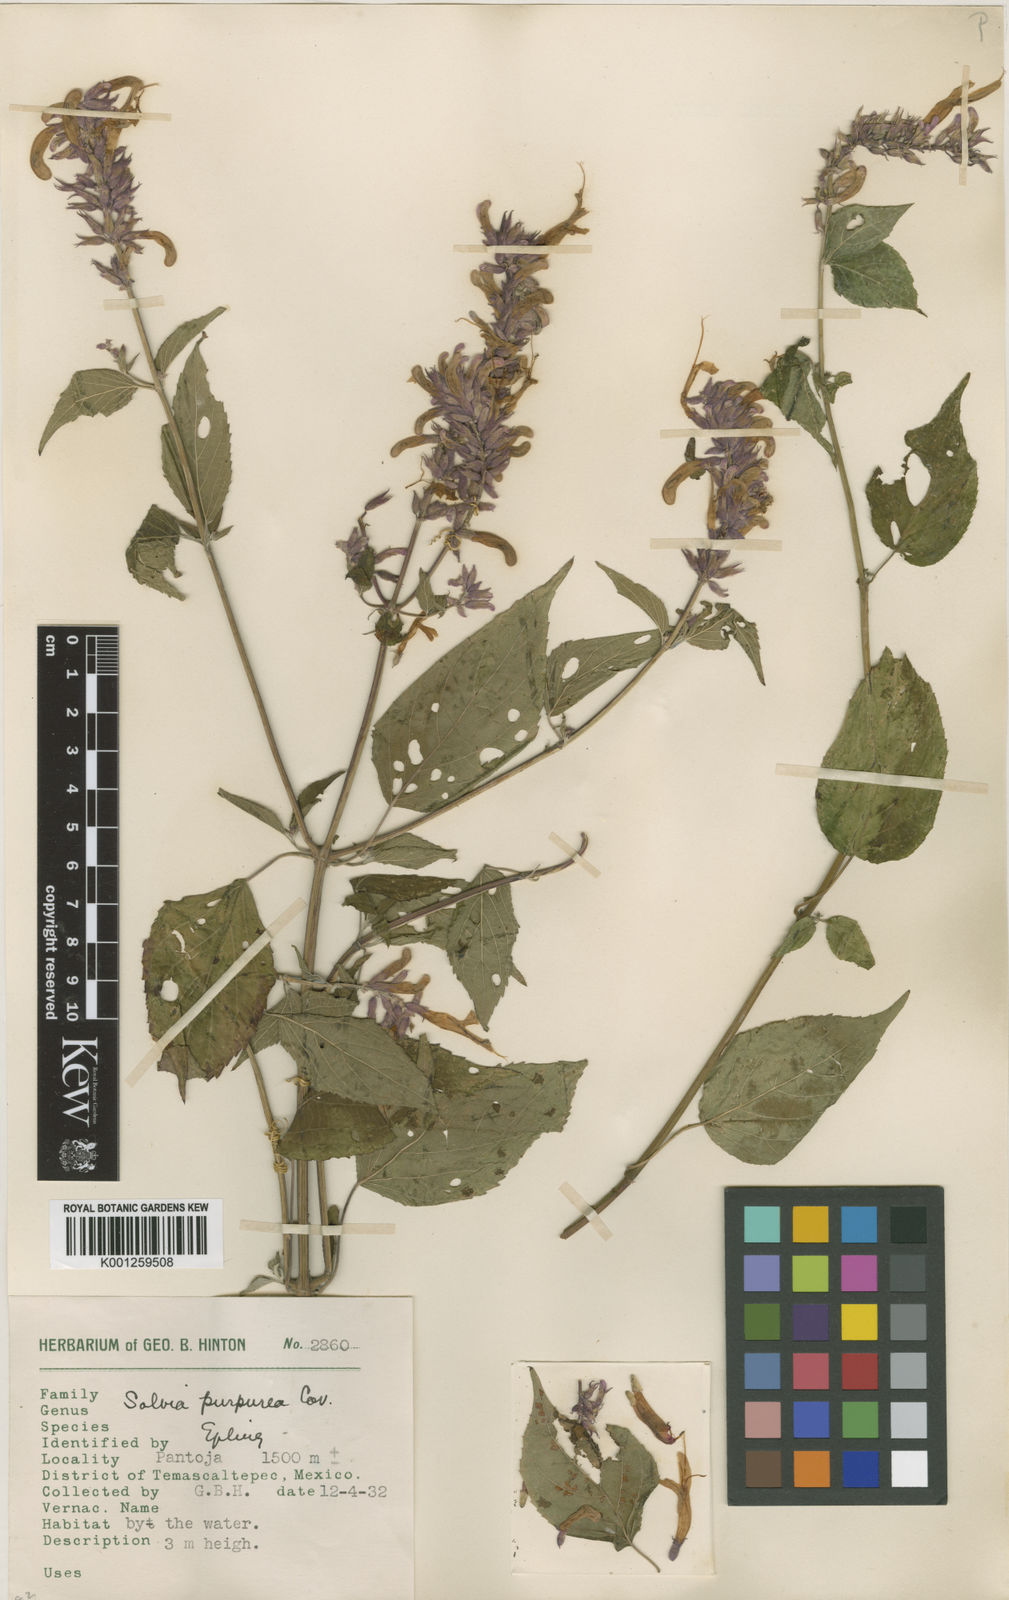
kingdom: Plantae
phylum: Tracheophyta
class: Magnoliopsida
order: Lamiales
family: Lamiaceae
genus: Salvia
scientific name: Salvia purpurea
